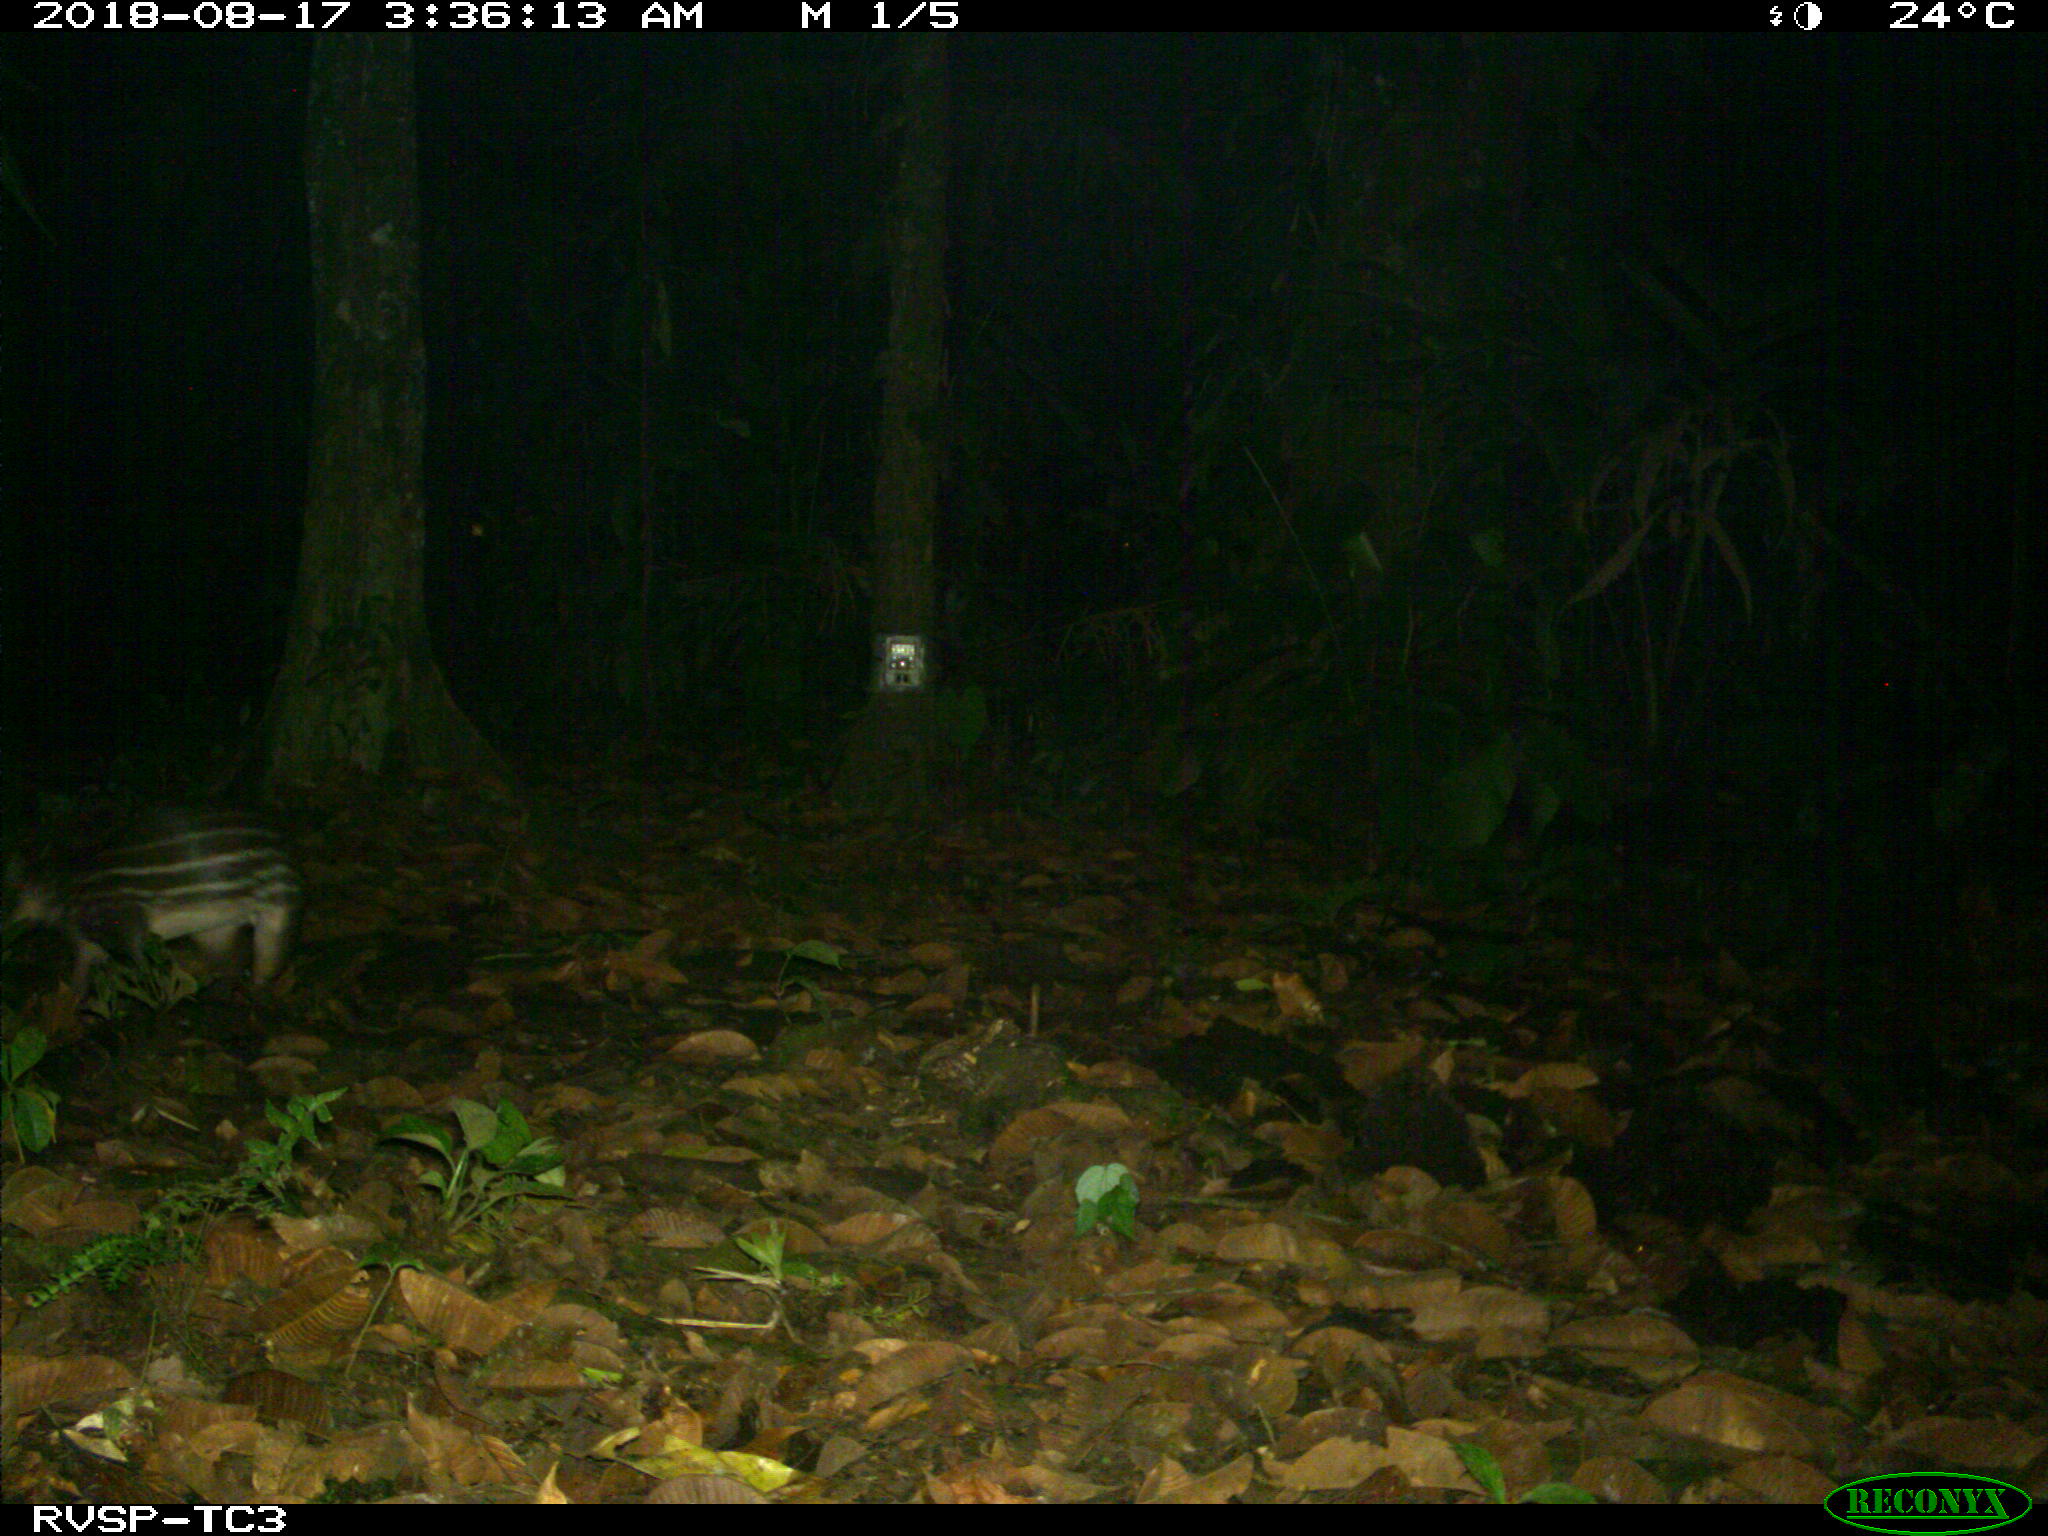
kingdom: Animalia
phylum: Chordata
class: Mammalia
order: Rodentia
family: Cuniculidae
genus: Cuniculus
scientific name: Cuniculus paca
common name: Lowland paca
